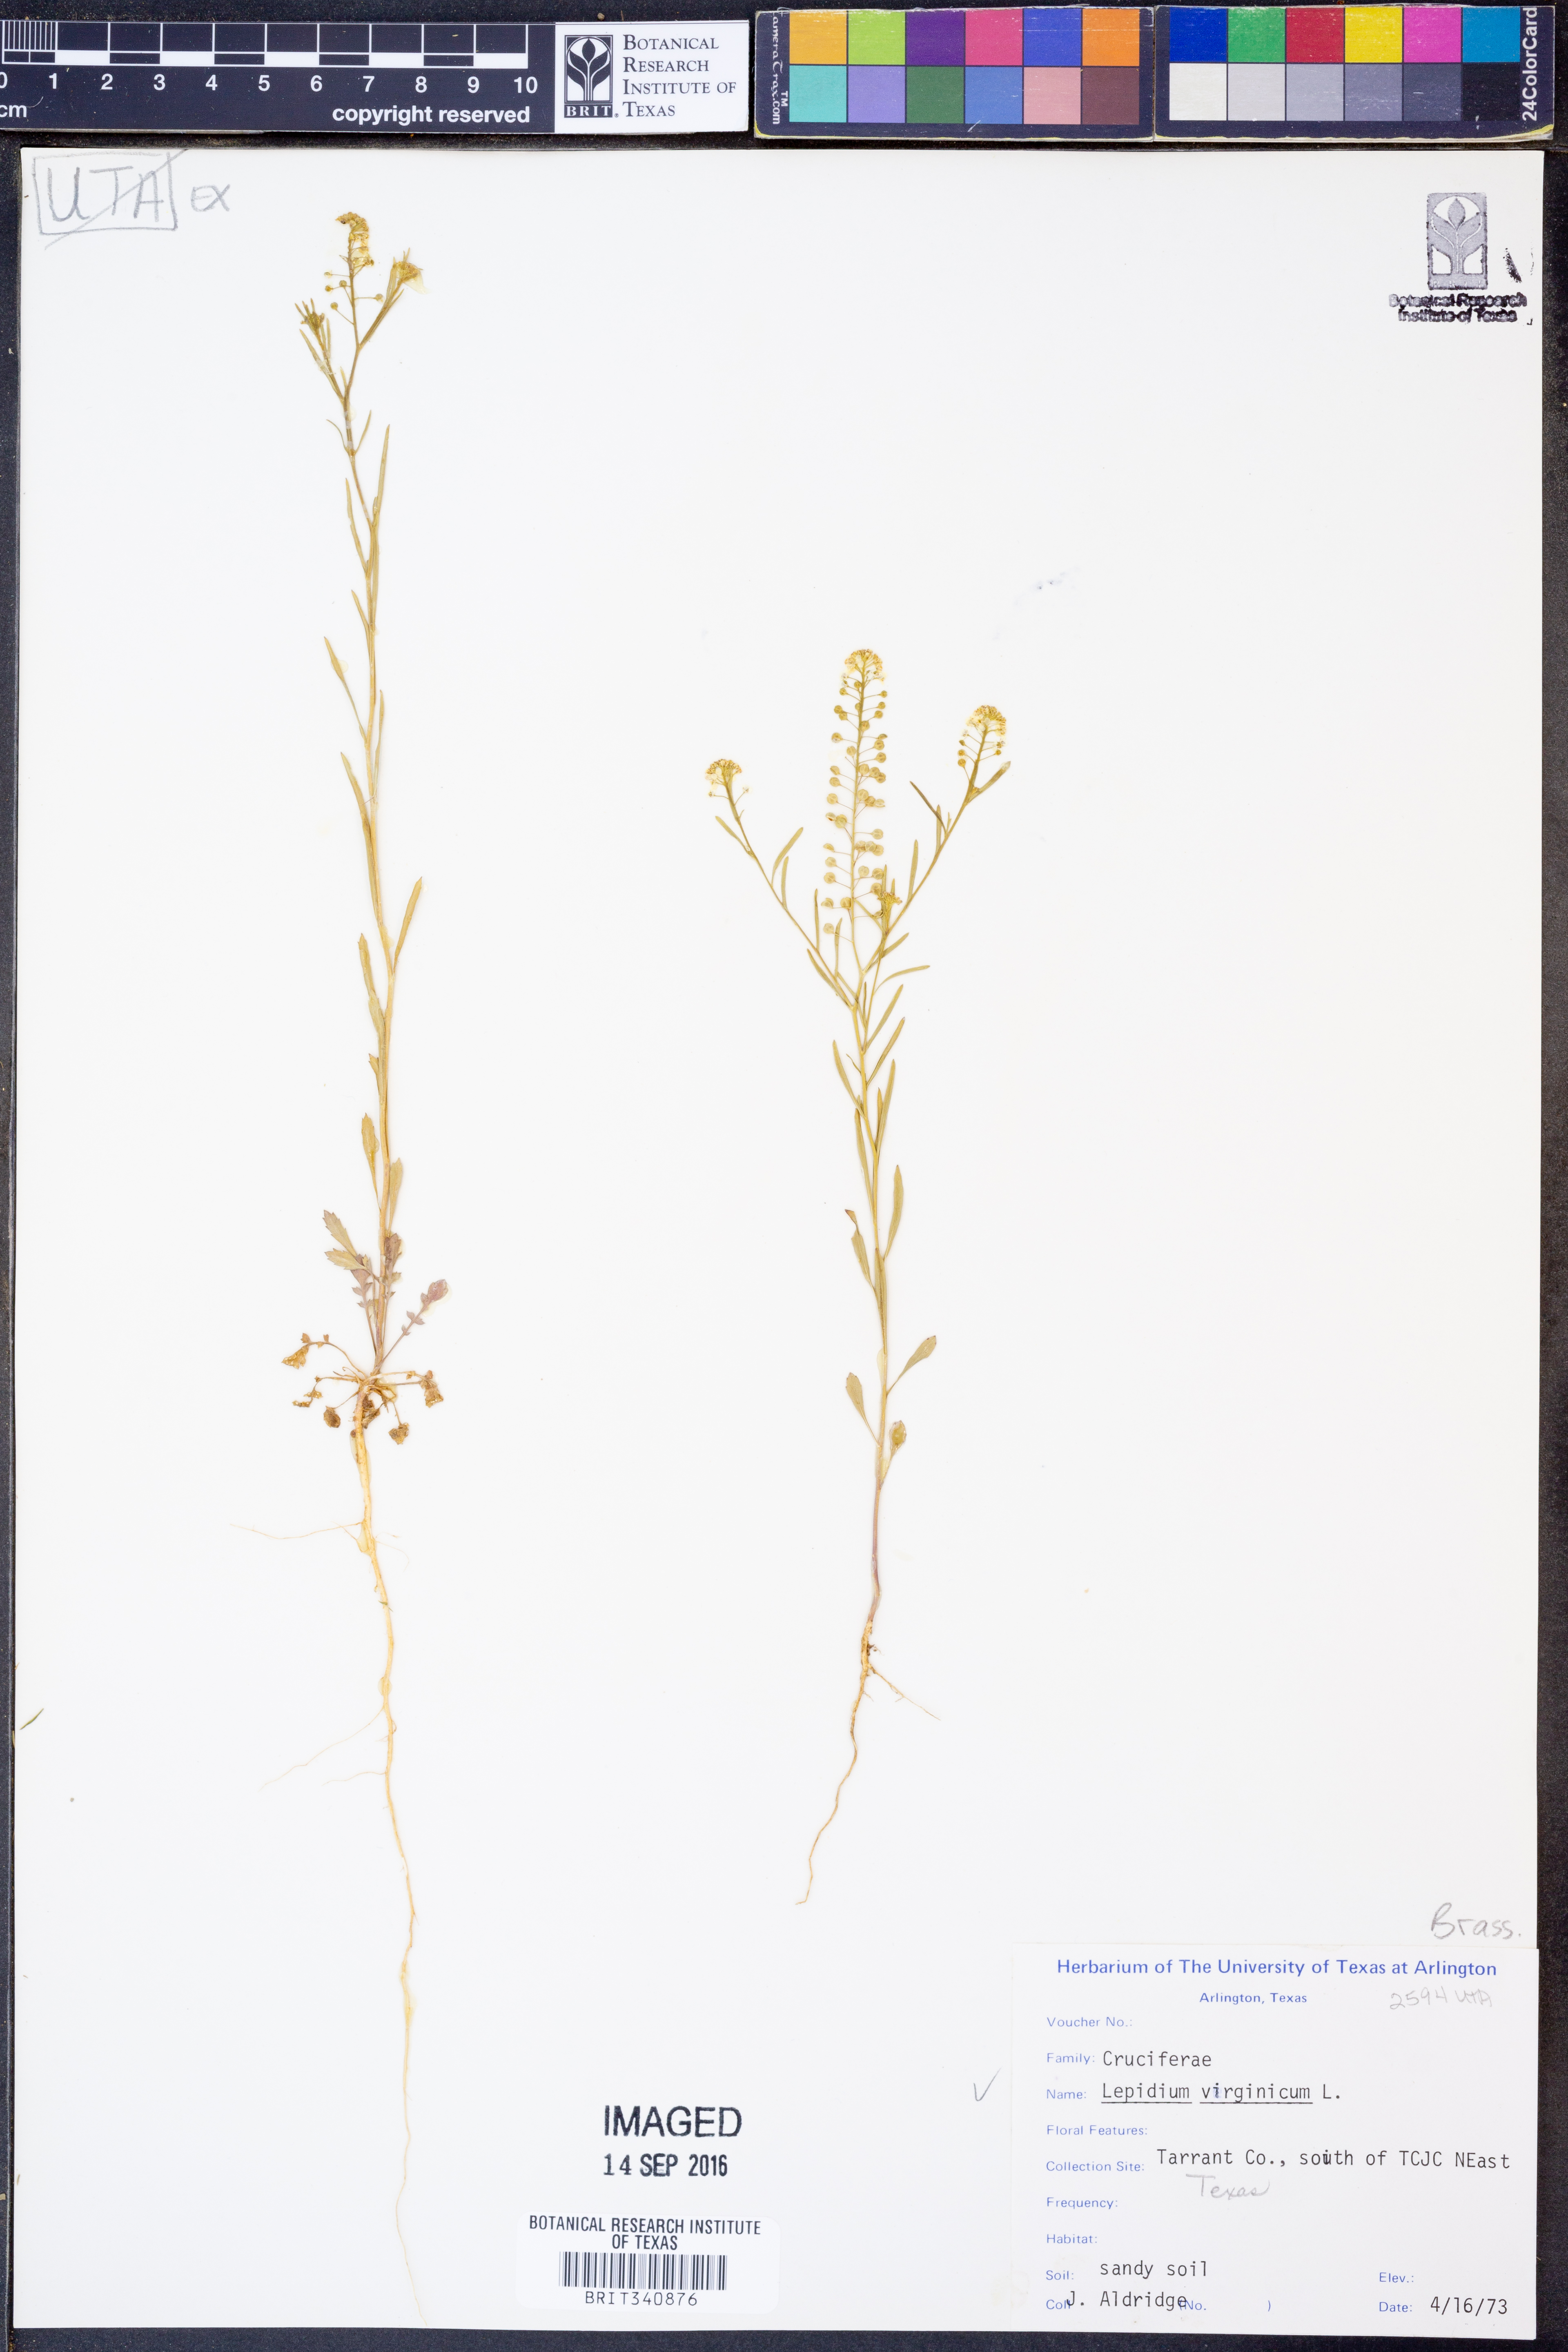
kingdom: Plantae
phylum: Tracheophyta
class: Magnoliopsida
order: Brassicales
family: Brassicaceae
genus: Lepidium
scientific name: Lepidium virginicum
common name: Least pepperwort
